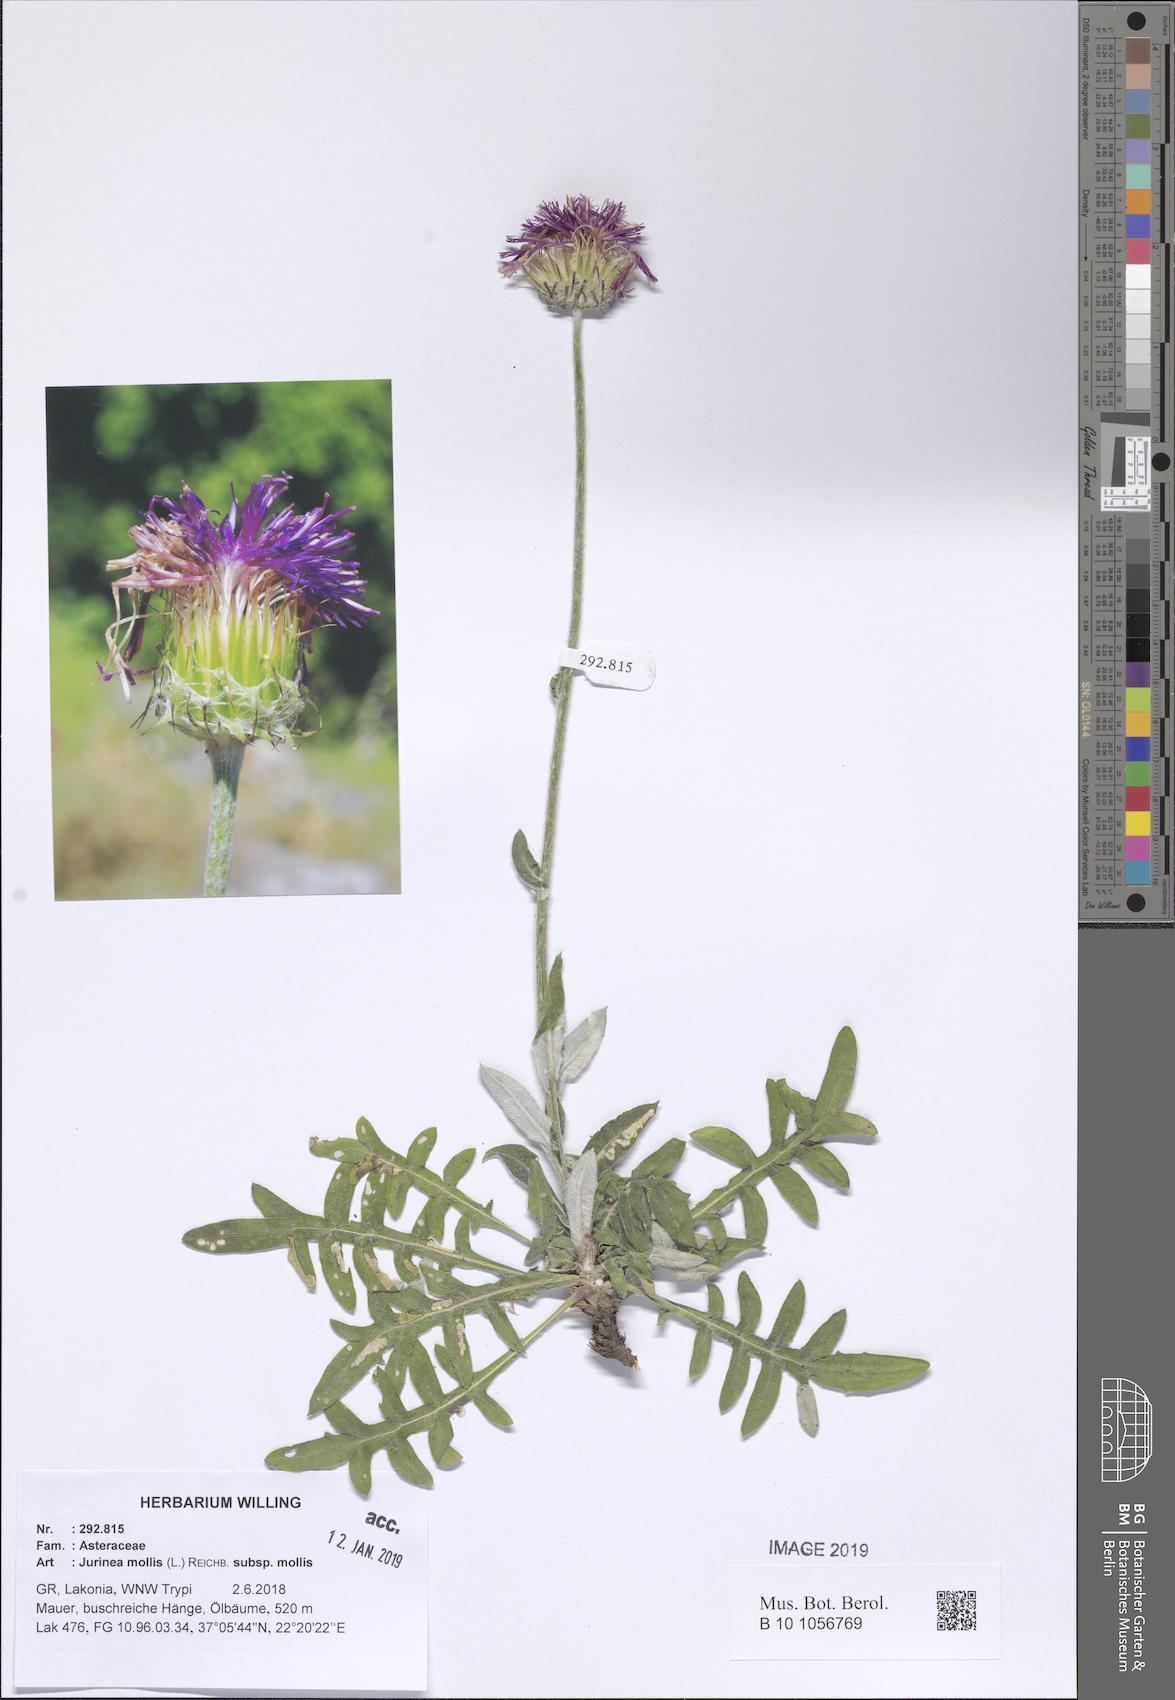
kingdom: Plantae
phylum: Tracheophyta
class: Magnoliopsida
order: Asterales
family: Asteraceae
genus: Jurinea
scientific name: Jurinea glycacantha
